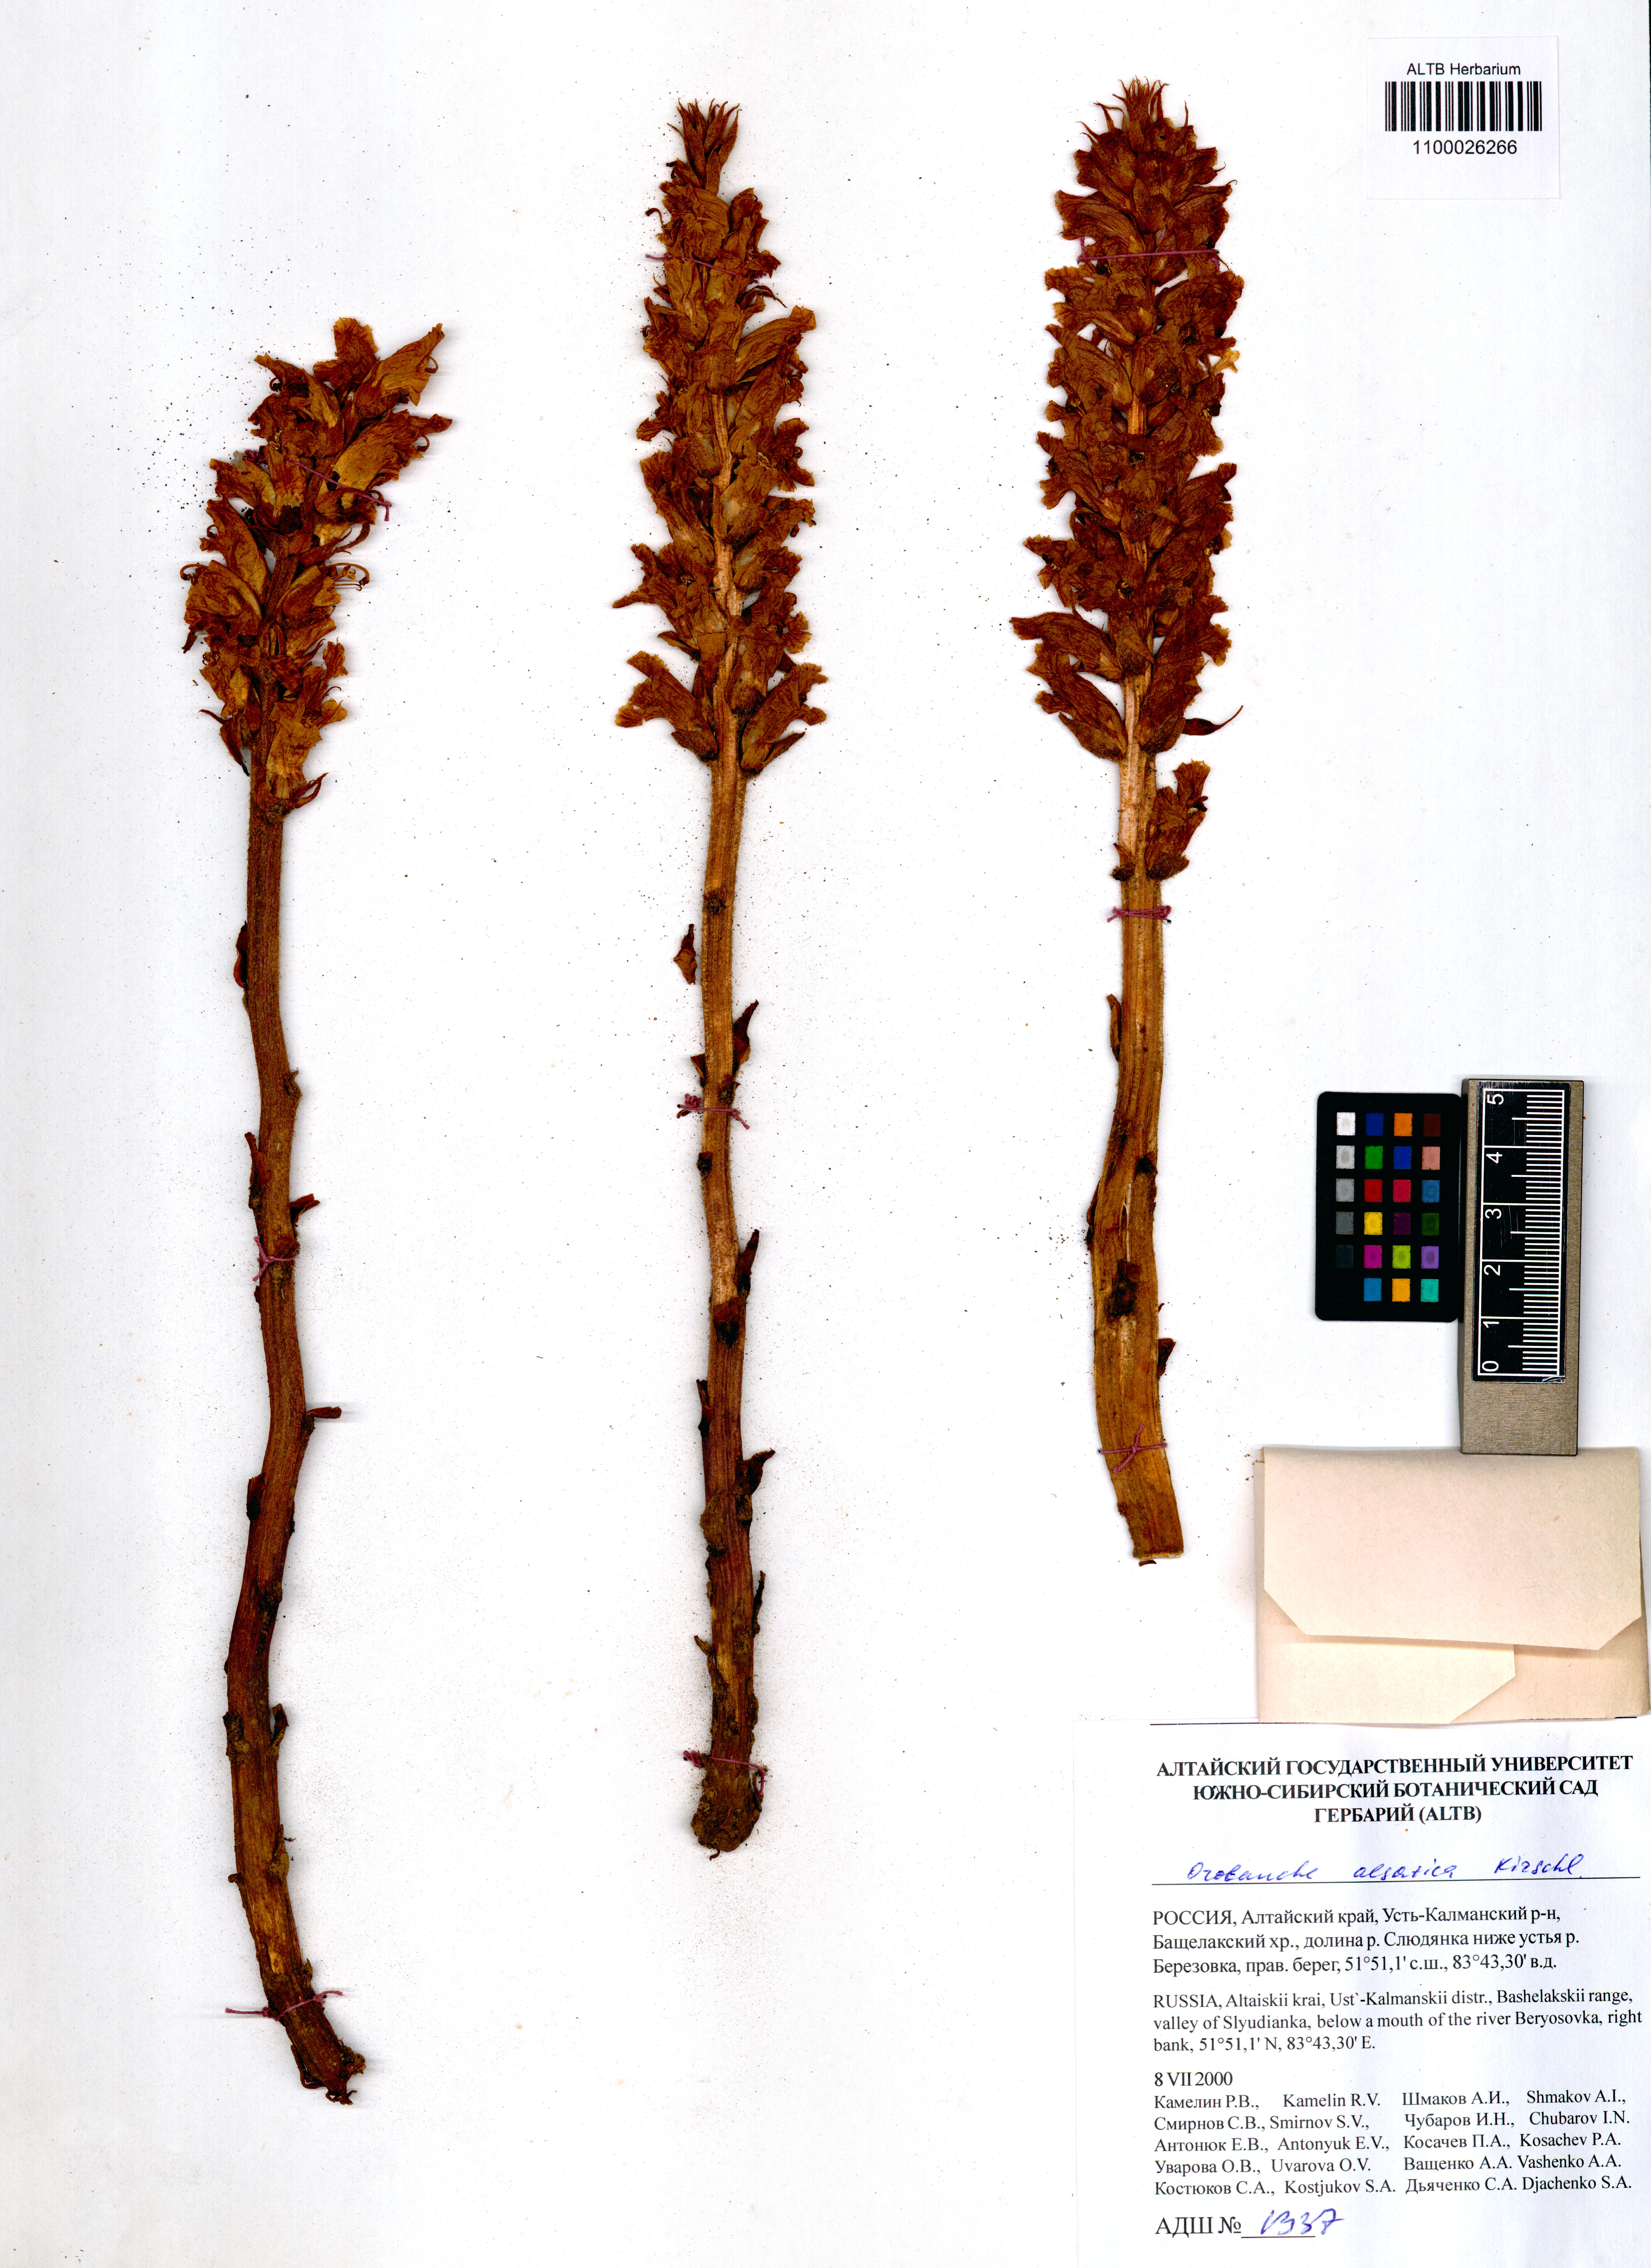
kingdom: Plantae
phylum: Tracheophyta
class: Magnoliopsida
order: Lamiales
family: Orobanchaceae
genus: Orobanche
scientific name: Orobanche alsatica
